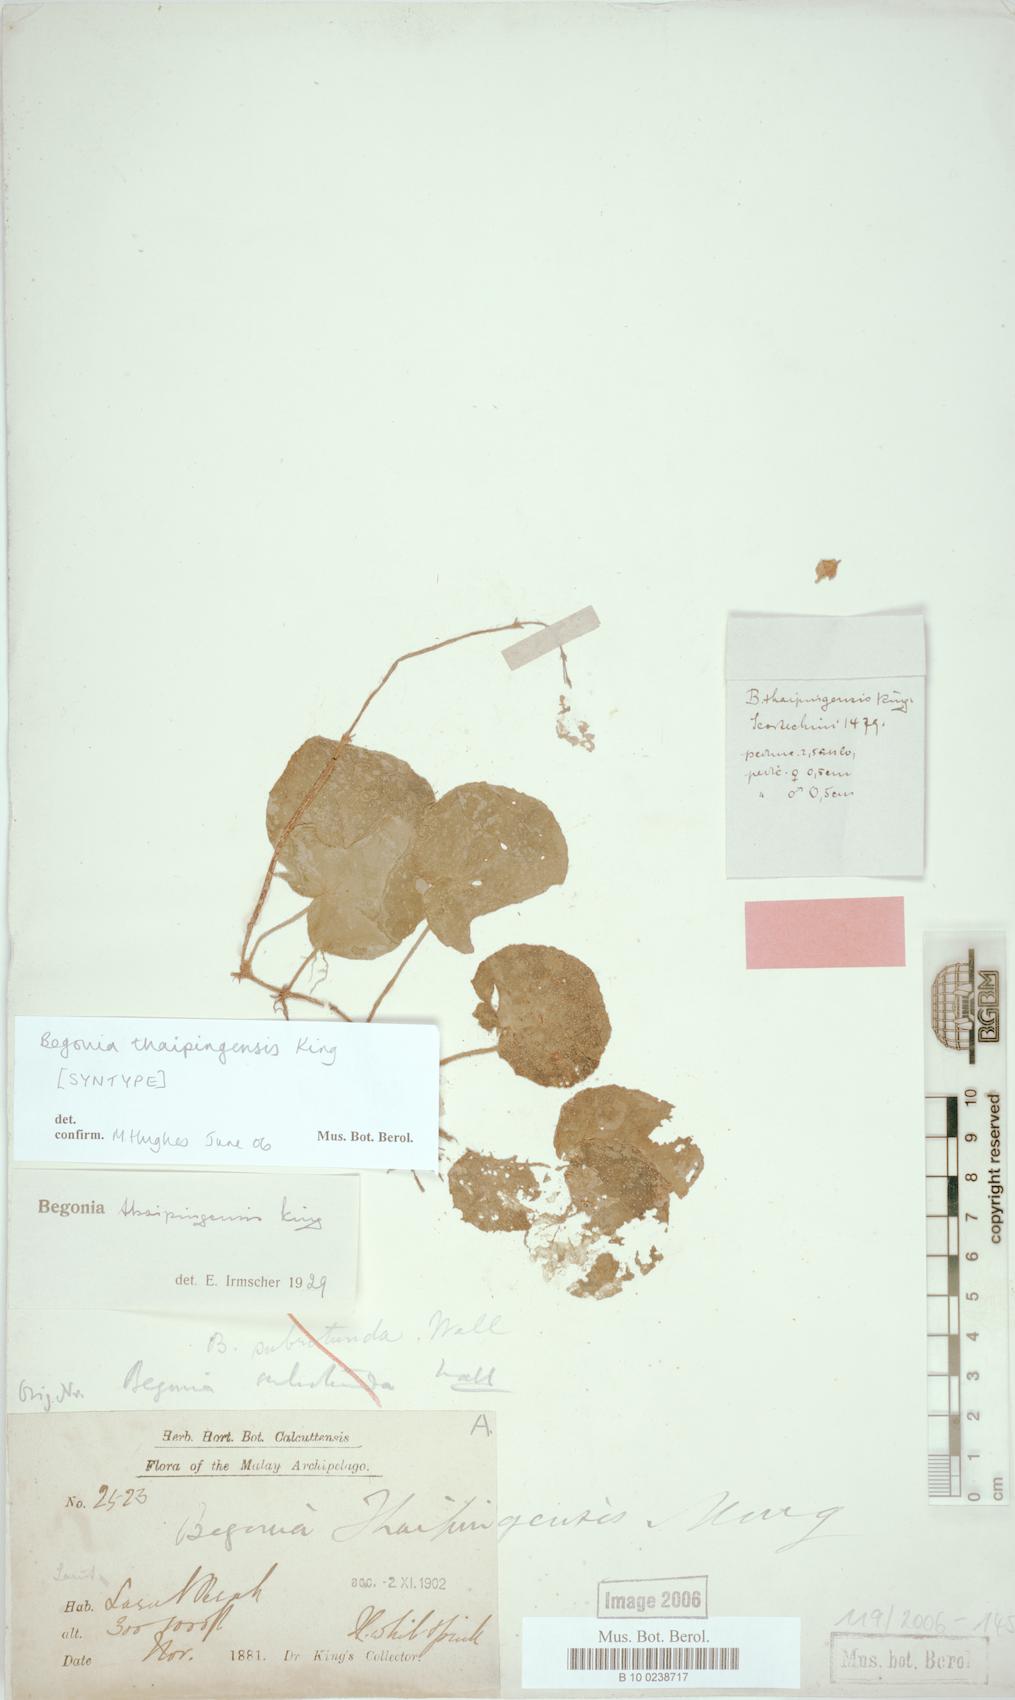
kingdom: Plantae
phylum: Tracheophyta
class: Magnoliopsida
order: Cucurbitales
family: Begoniaceae
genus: Begonia
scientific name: Begonia thaipingensis
